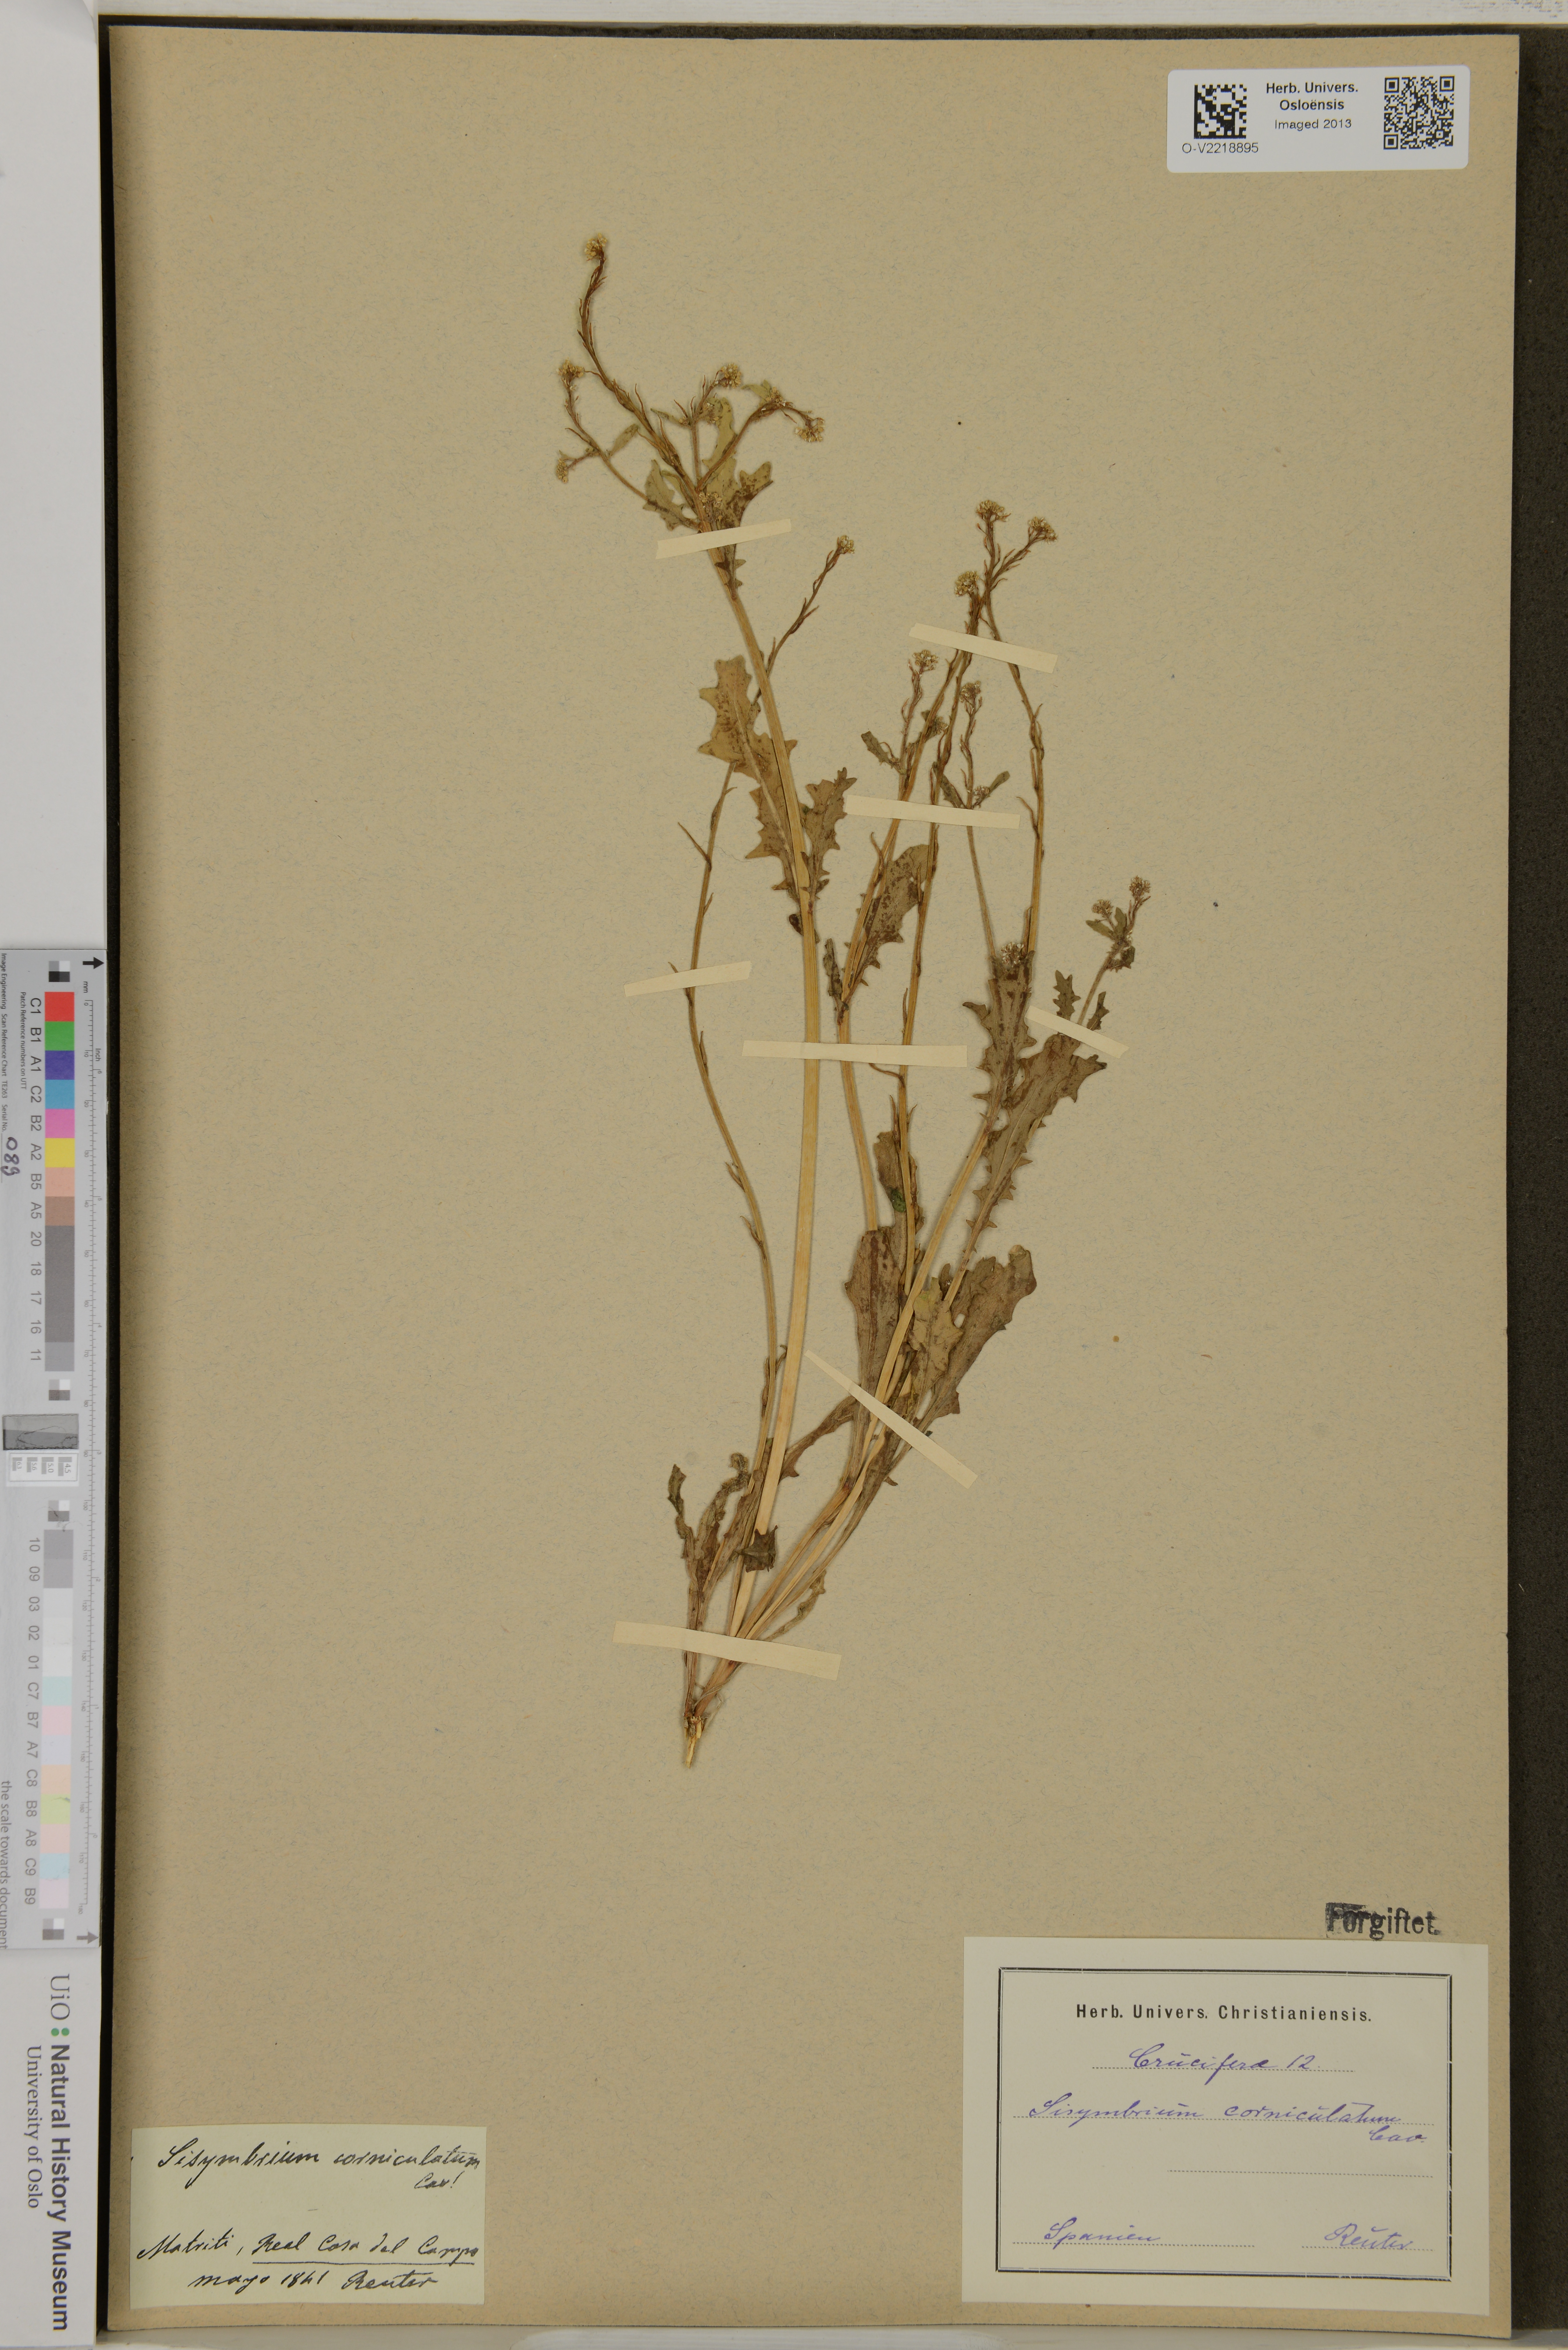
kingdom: Plantae
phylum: Tracheophyta
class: Magnoliopsida
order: Brassicales
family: Brassicaceae
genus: Sisymbrium
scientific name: Sisymbrium
